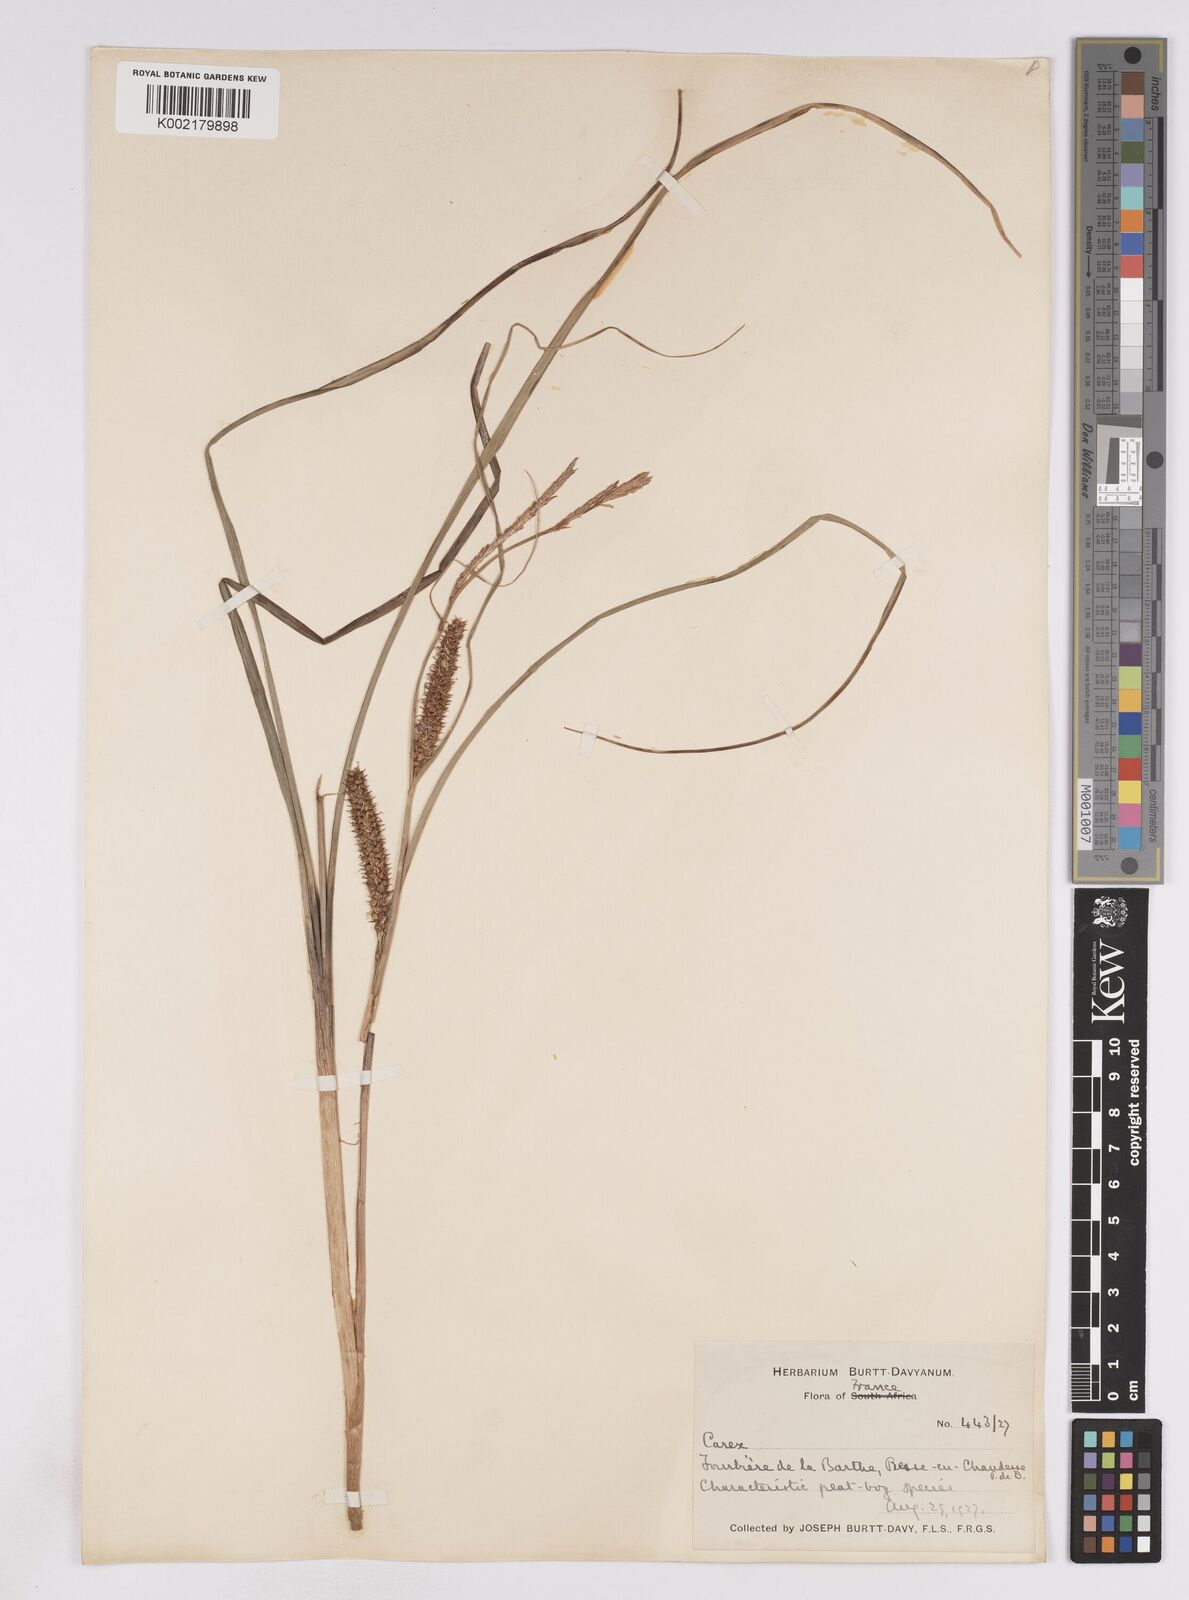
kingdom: Plantae
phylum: Tracheophyta
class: Liliopsida
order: Poales
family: Cyperaceae
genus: Carex
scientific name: Carex rostrata
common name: Bottle sedge
